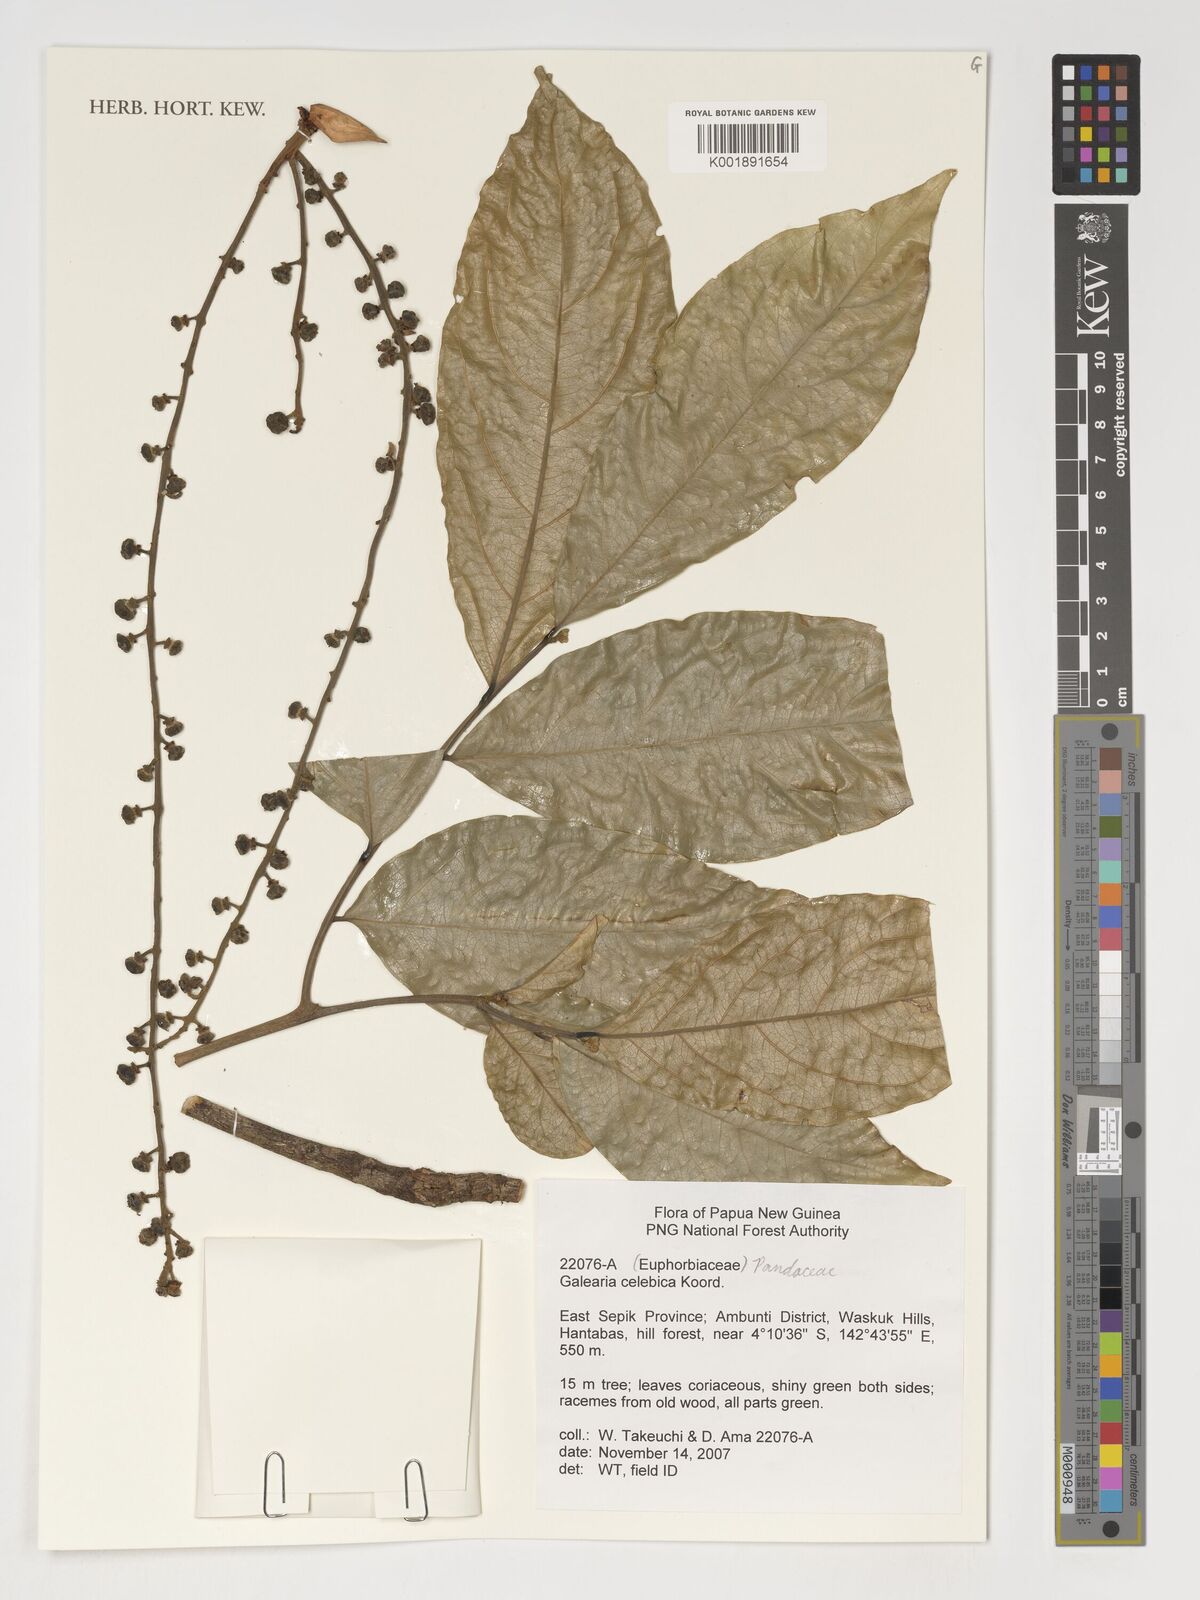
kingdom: Plantae
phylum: Tracheophyta
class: Magnoliopsida
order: Malpighiales
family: Pandaceae
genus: Galearia
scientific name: Galearia celebica
